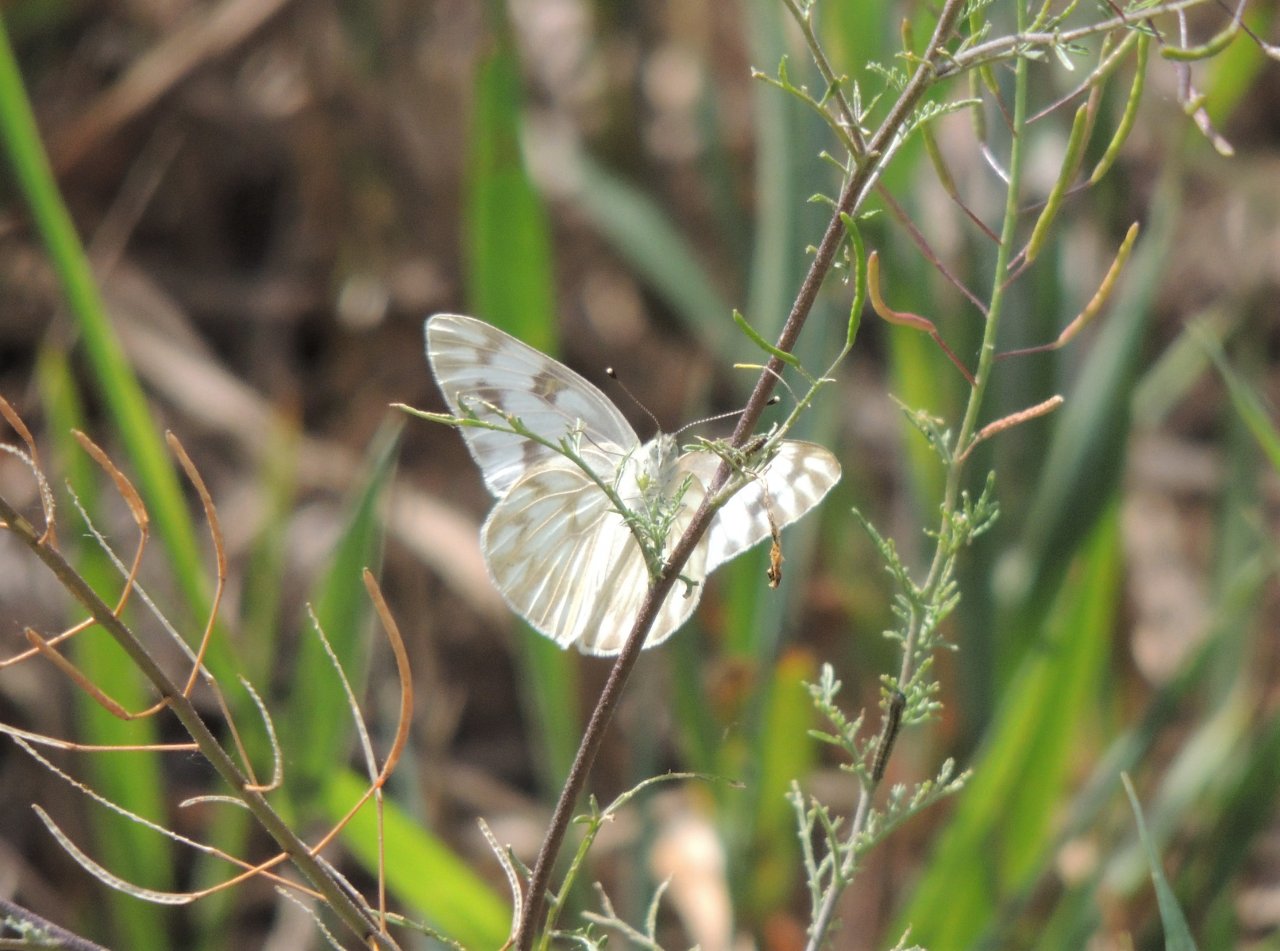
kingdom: Animalia
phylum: Arthropoda
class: Insecta
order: Lepidoptera
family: Pieridae
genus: Pontia
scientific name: Pontia occidentalis
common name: Western White
